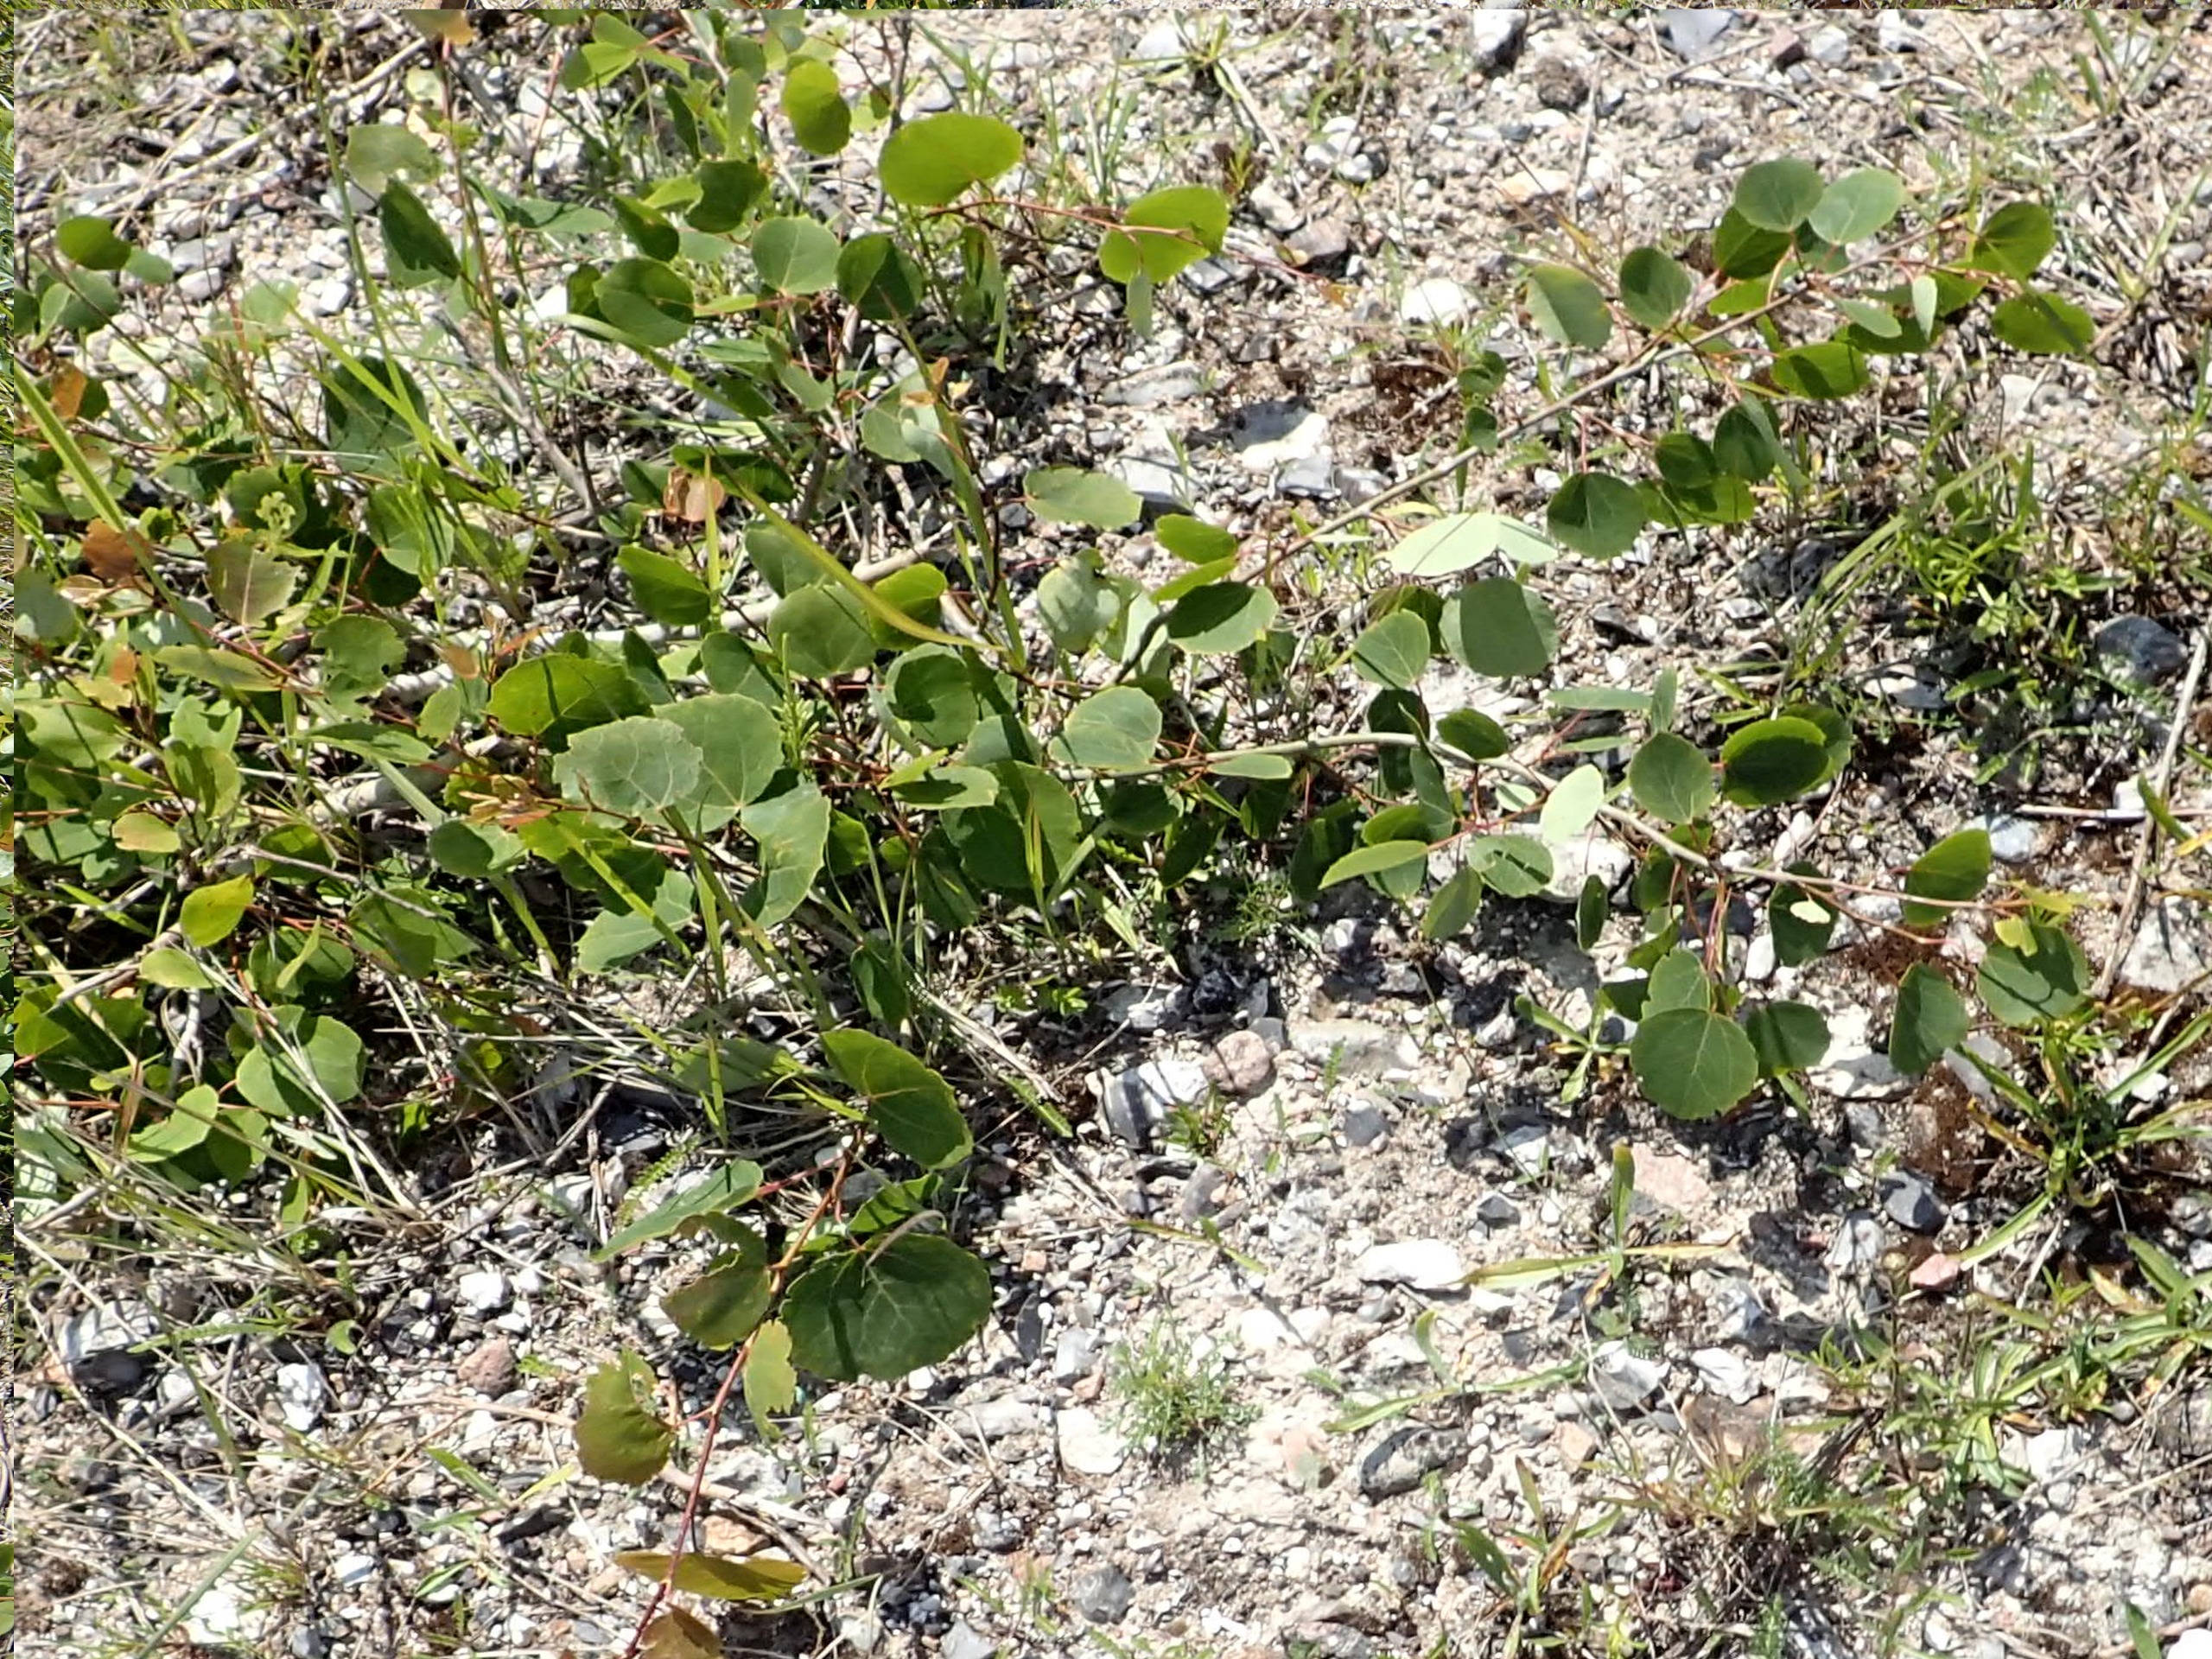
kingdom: Plantae
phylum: Tracheophyta
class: Magnoliopsida
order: Malpighiales
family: Salicaceae
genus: Populus
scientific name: Populus tremula
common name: Bævreasp
